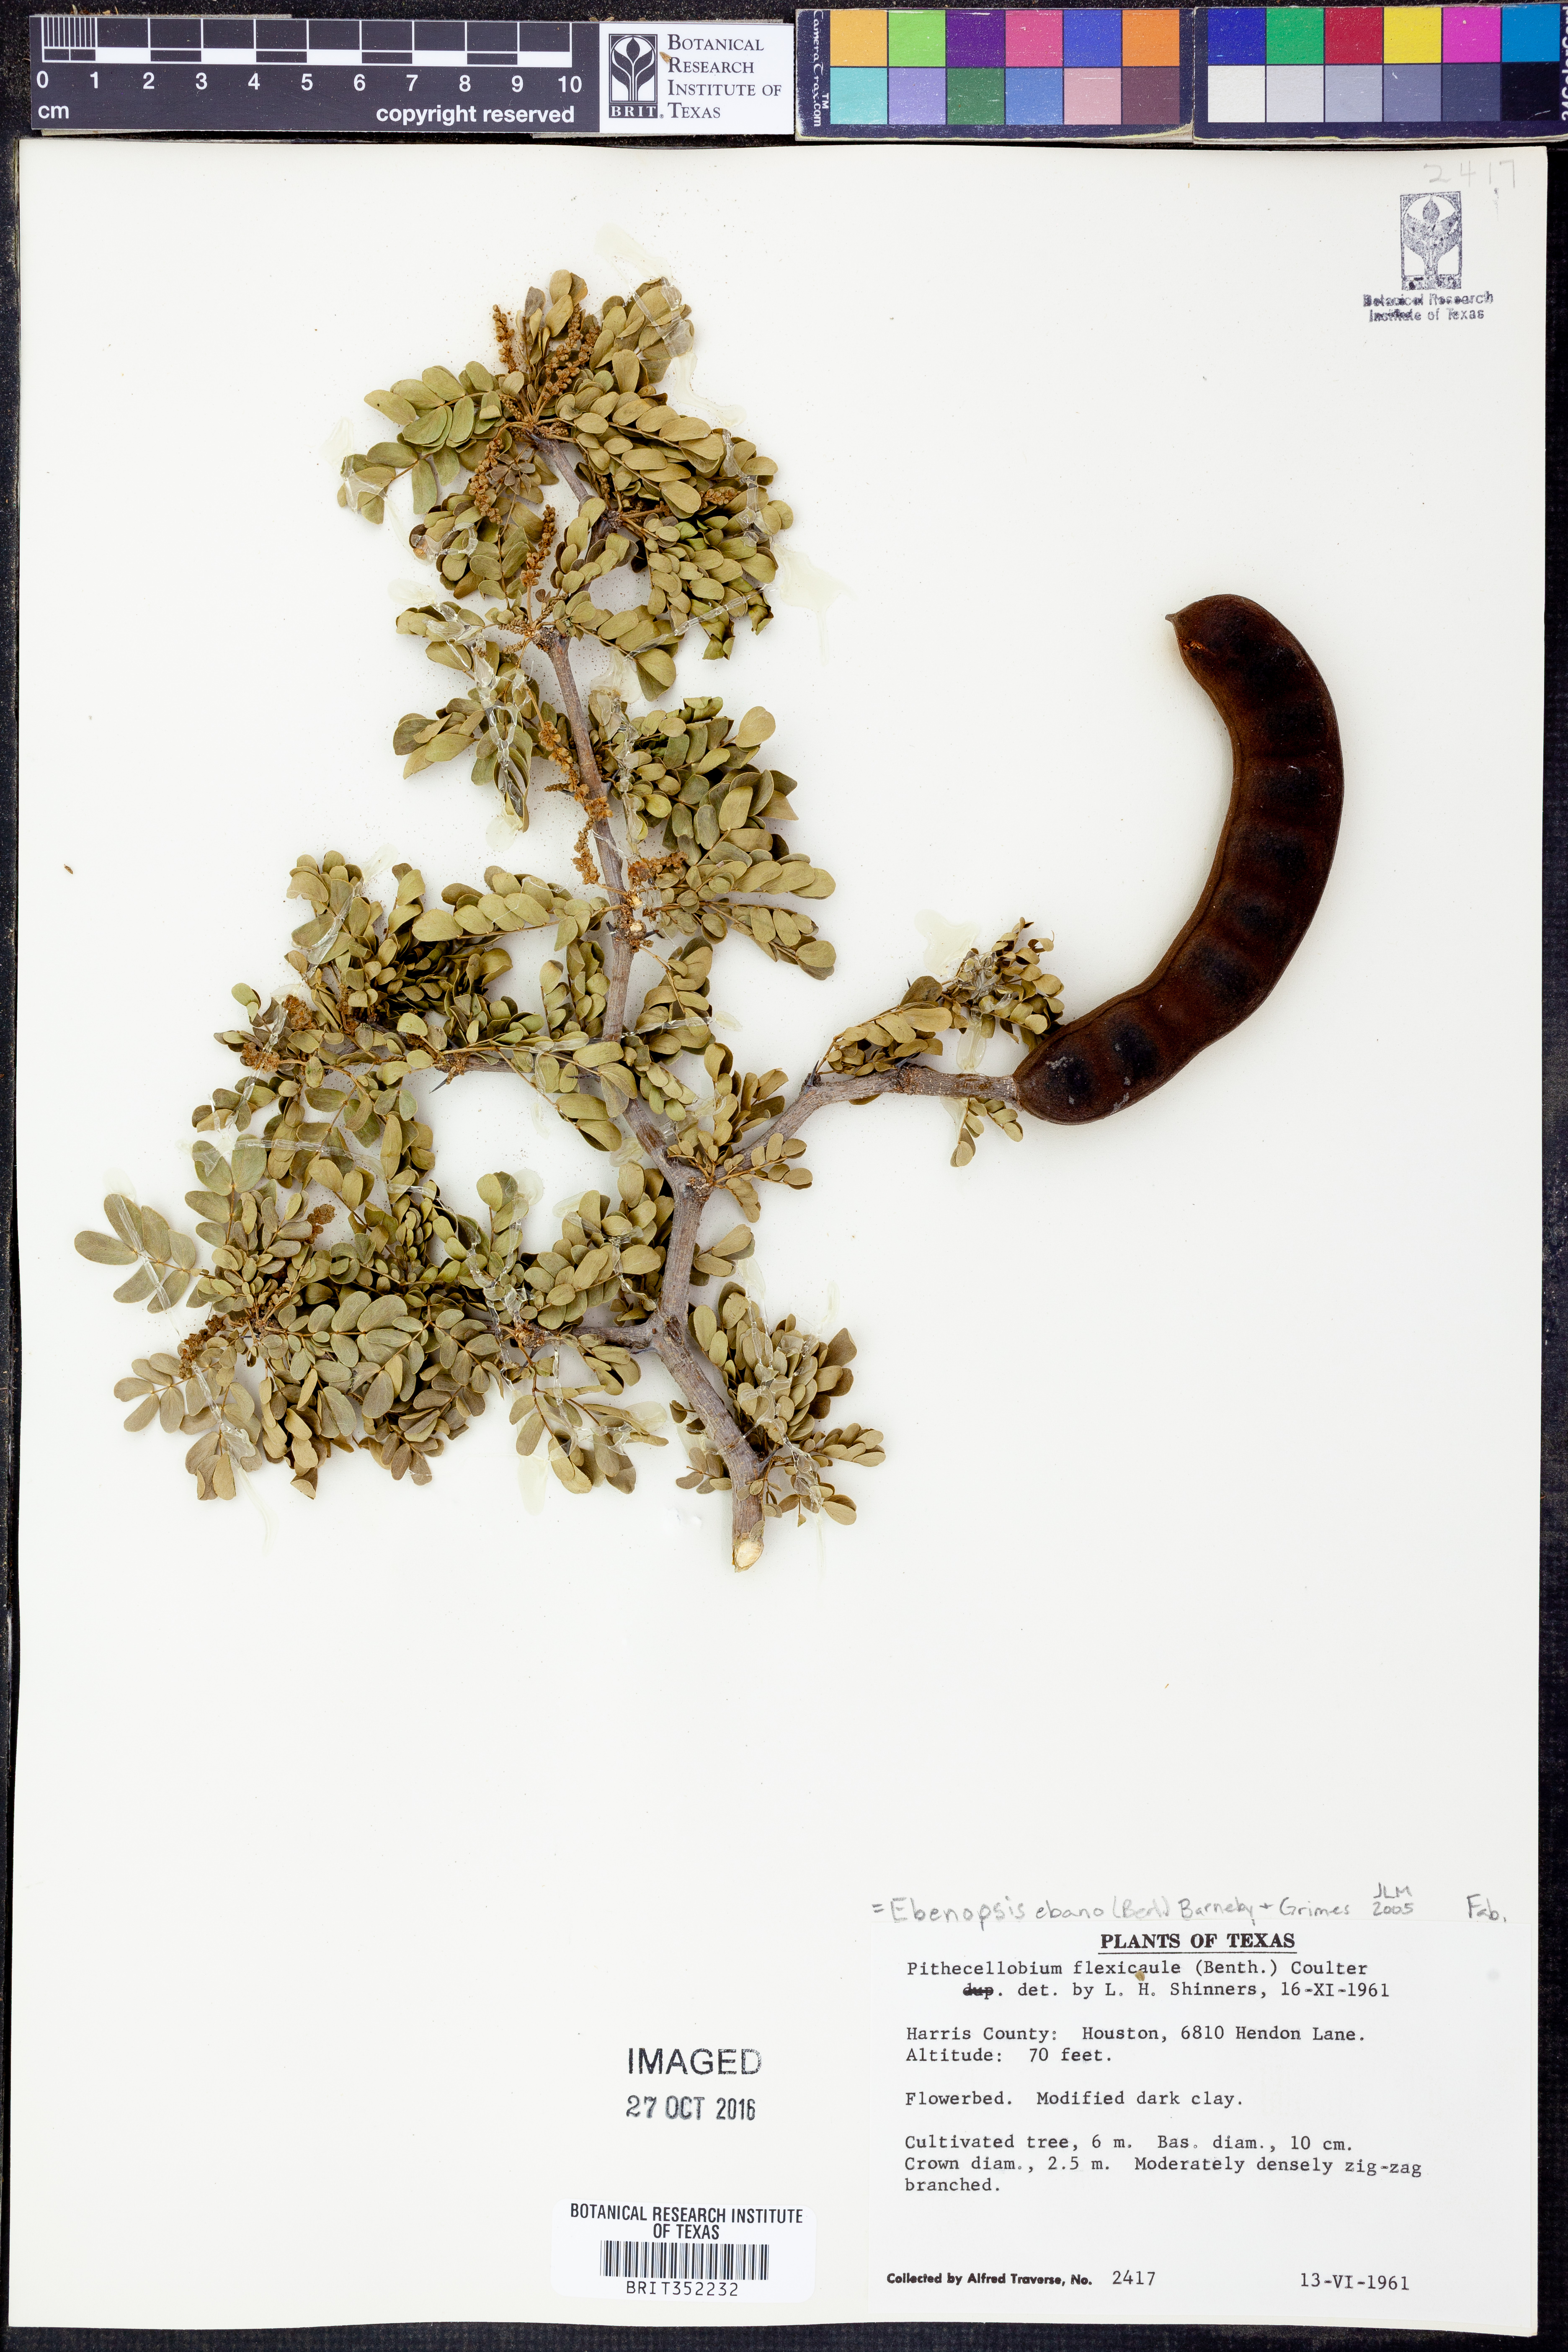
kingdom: Plantae
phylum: Tracheophyta
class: Magnoliopsida
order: Fabales
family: Fabaceae
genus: Ebenopsis
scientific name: Ebenopsis ebano
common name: Ebony blackbead
